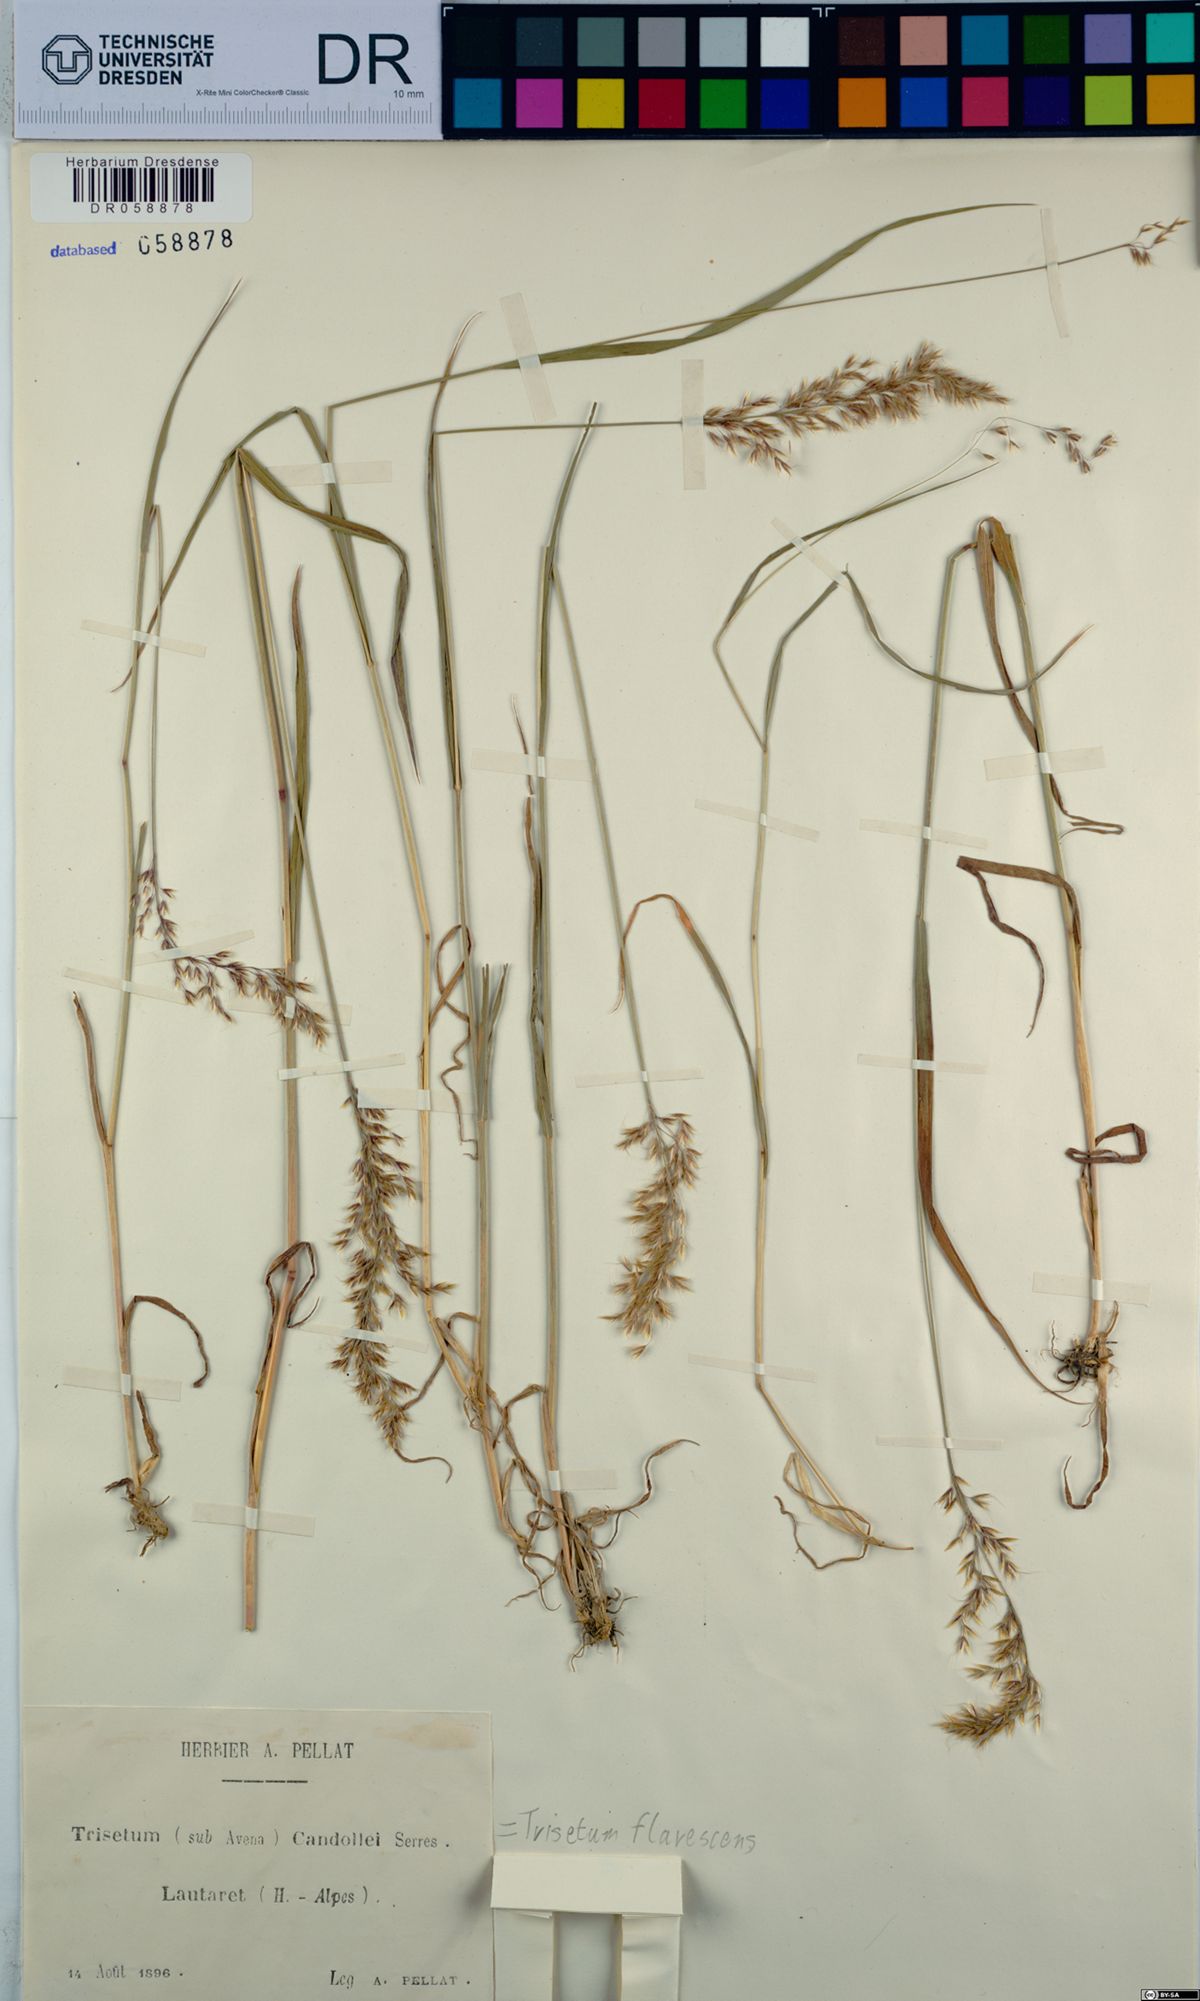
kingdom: Plantae
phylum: Tracheophyta
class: Liliopsida
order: Poales
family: Poaceae
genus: Trisetum
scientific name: Trisetum flavescens
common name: Yellow oat-grass
